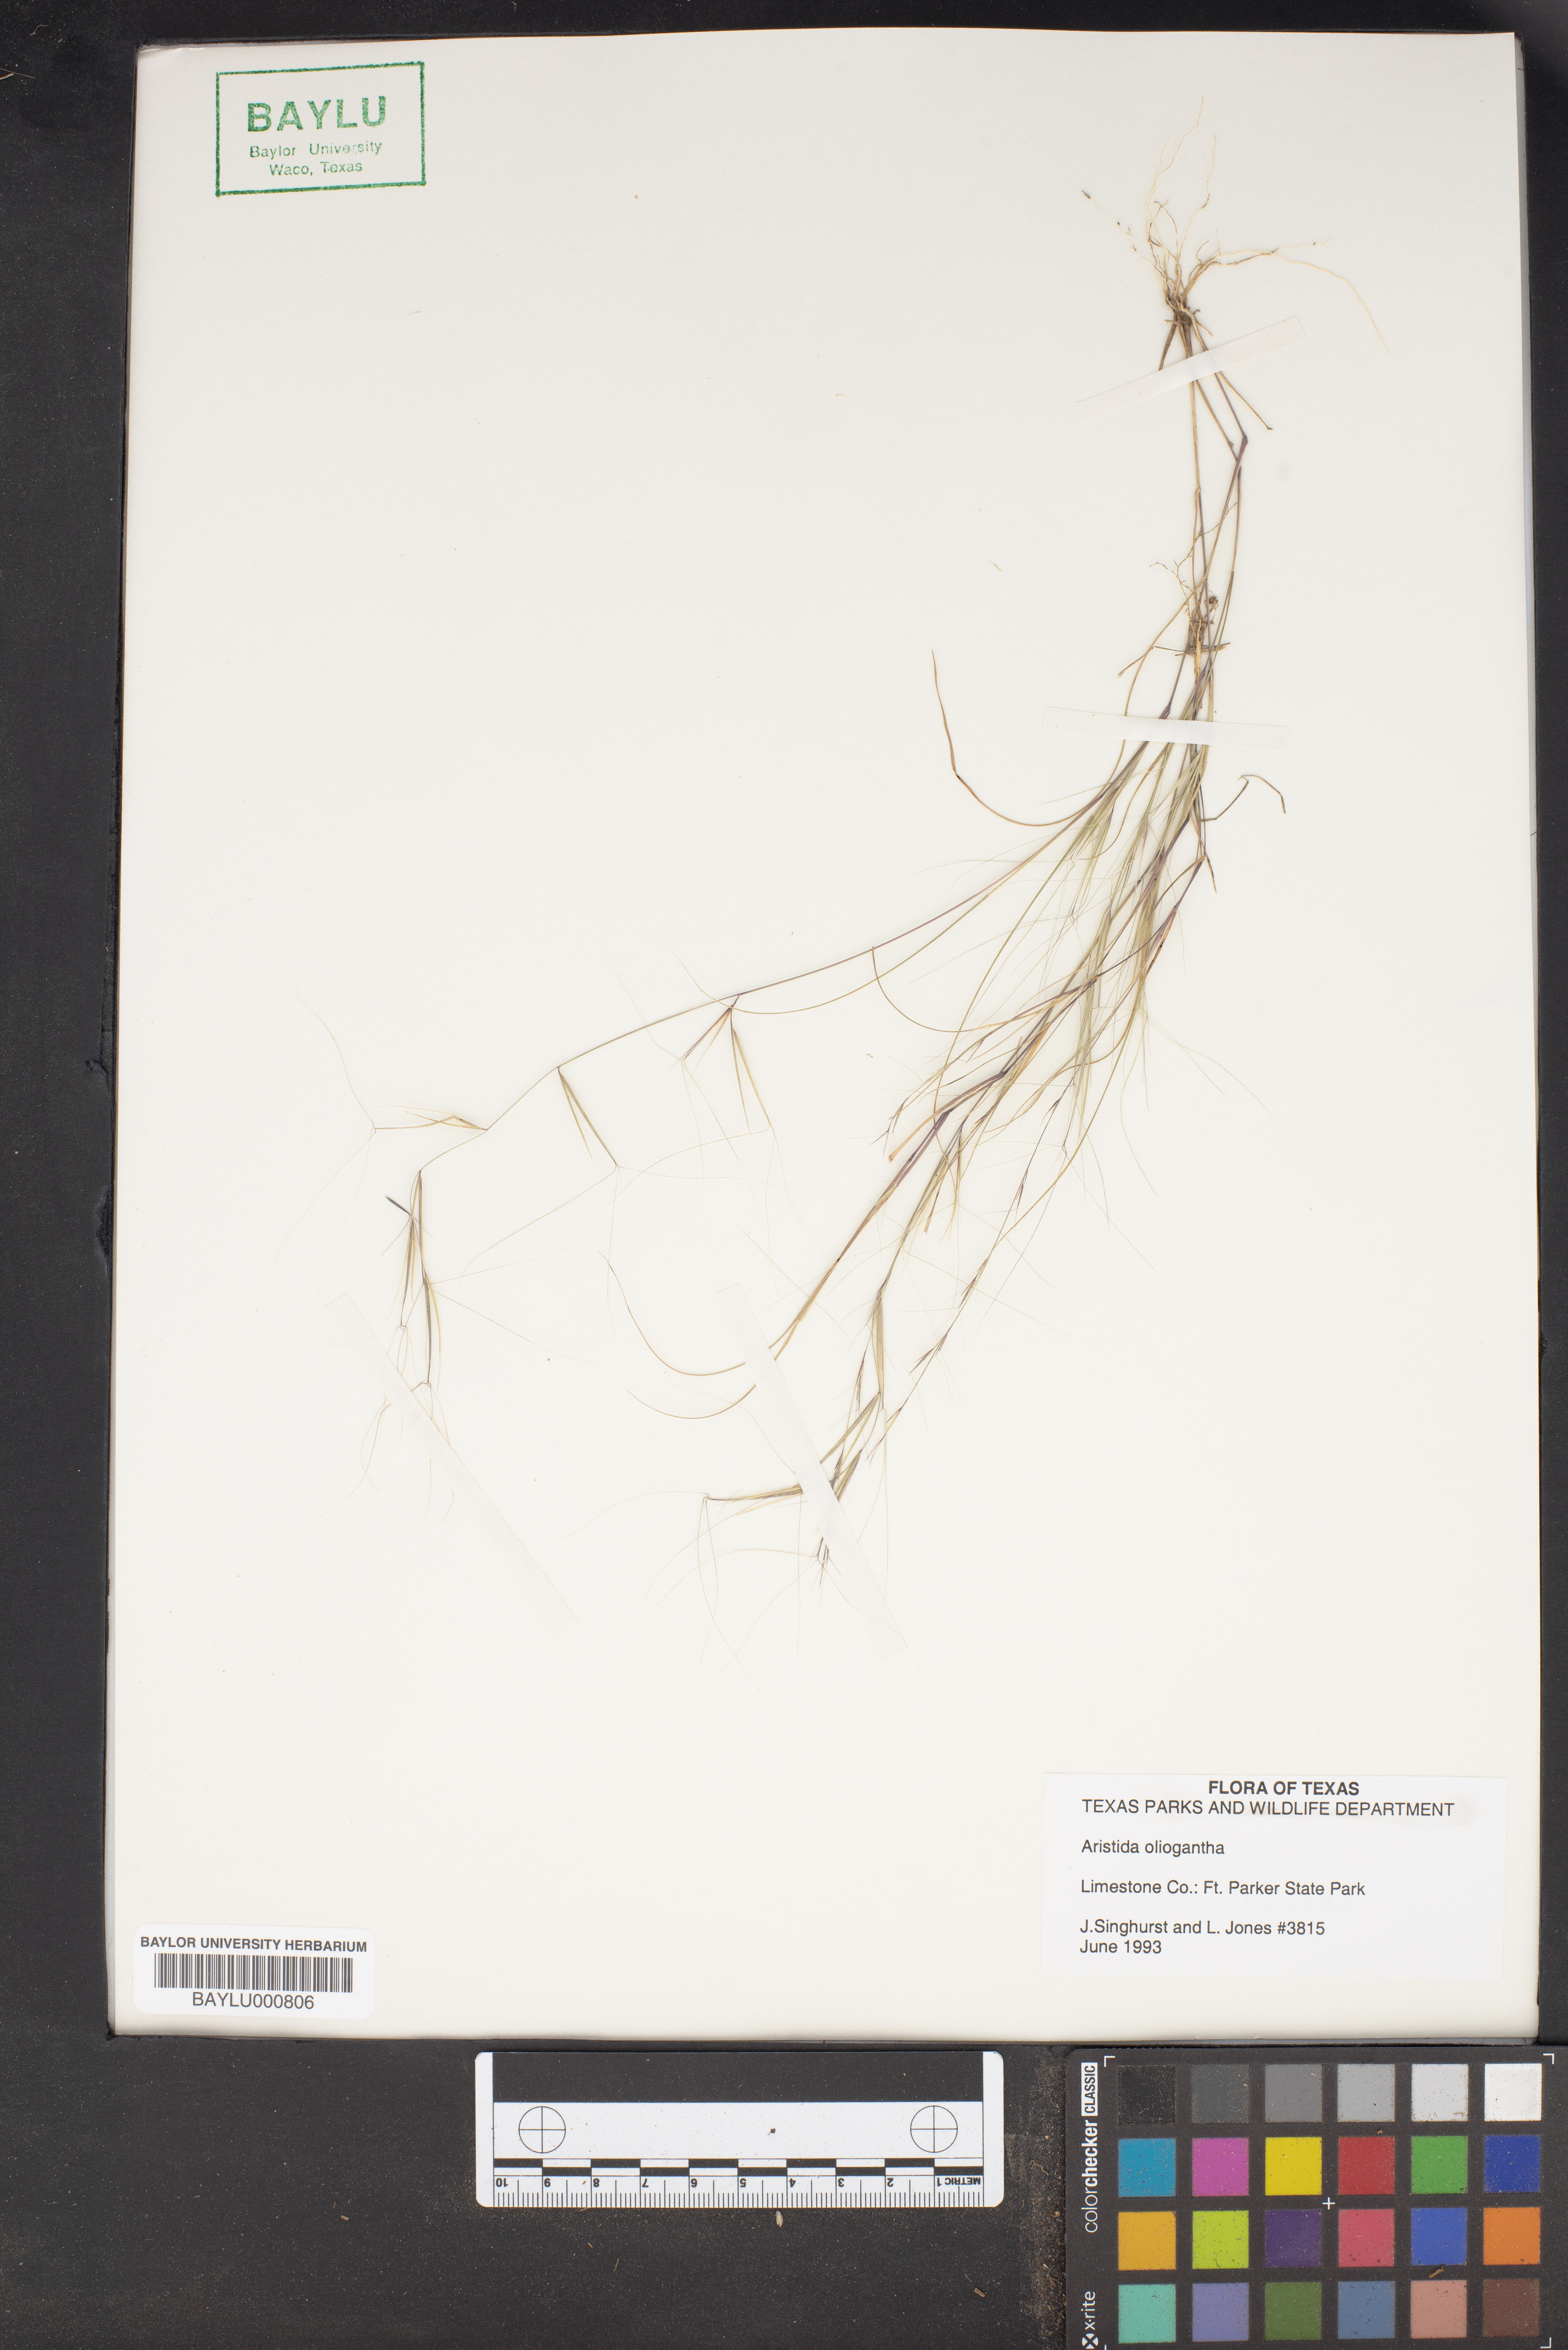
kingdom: Plantae
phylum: Tracheophyta
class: Liliopsida
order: Poales
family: Poaceae
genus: Aristida
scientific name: Aristida oligantha
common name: Few-flowered aristida
